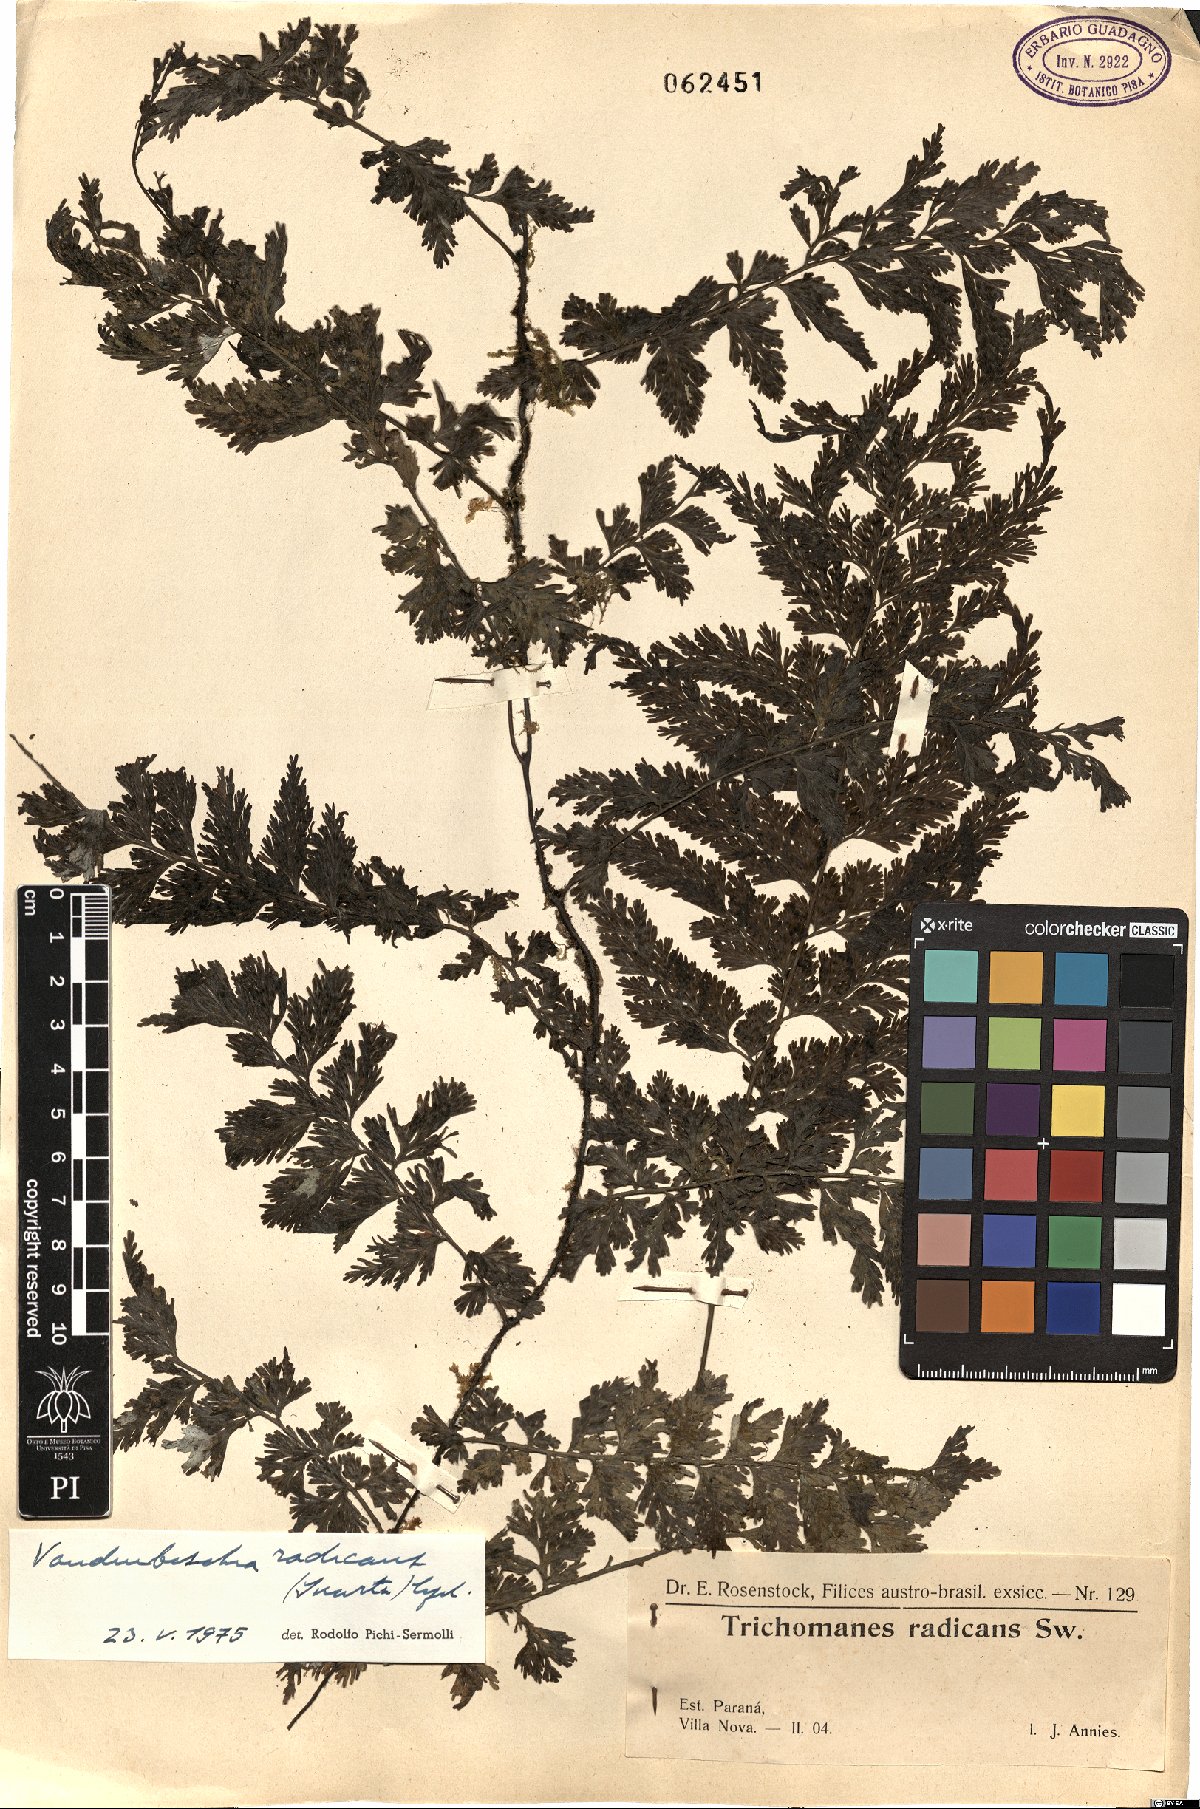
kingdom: Plantae
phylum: Tracheophyta
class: Polypodiopsida
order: Hymenophyllales
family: Hymenophyllaceae
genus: Vandenboschia
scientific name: Vandenboschia radicans
